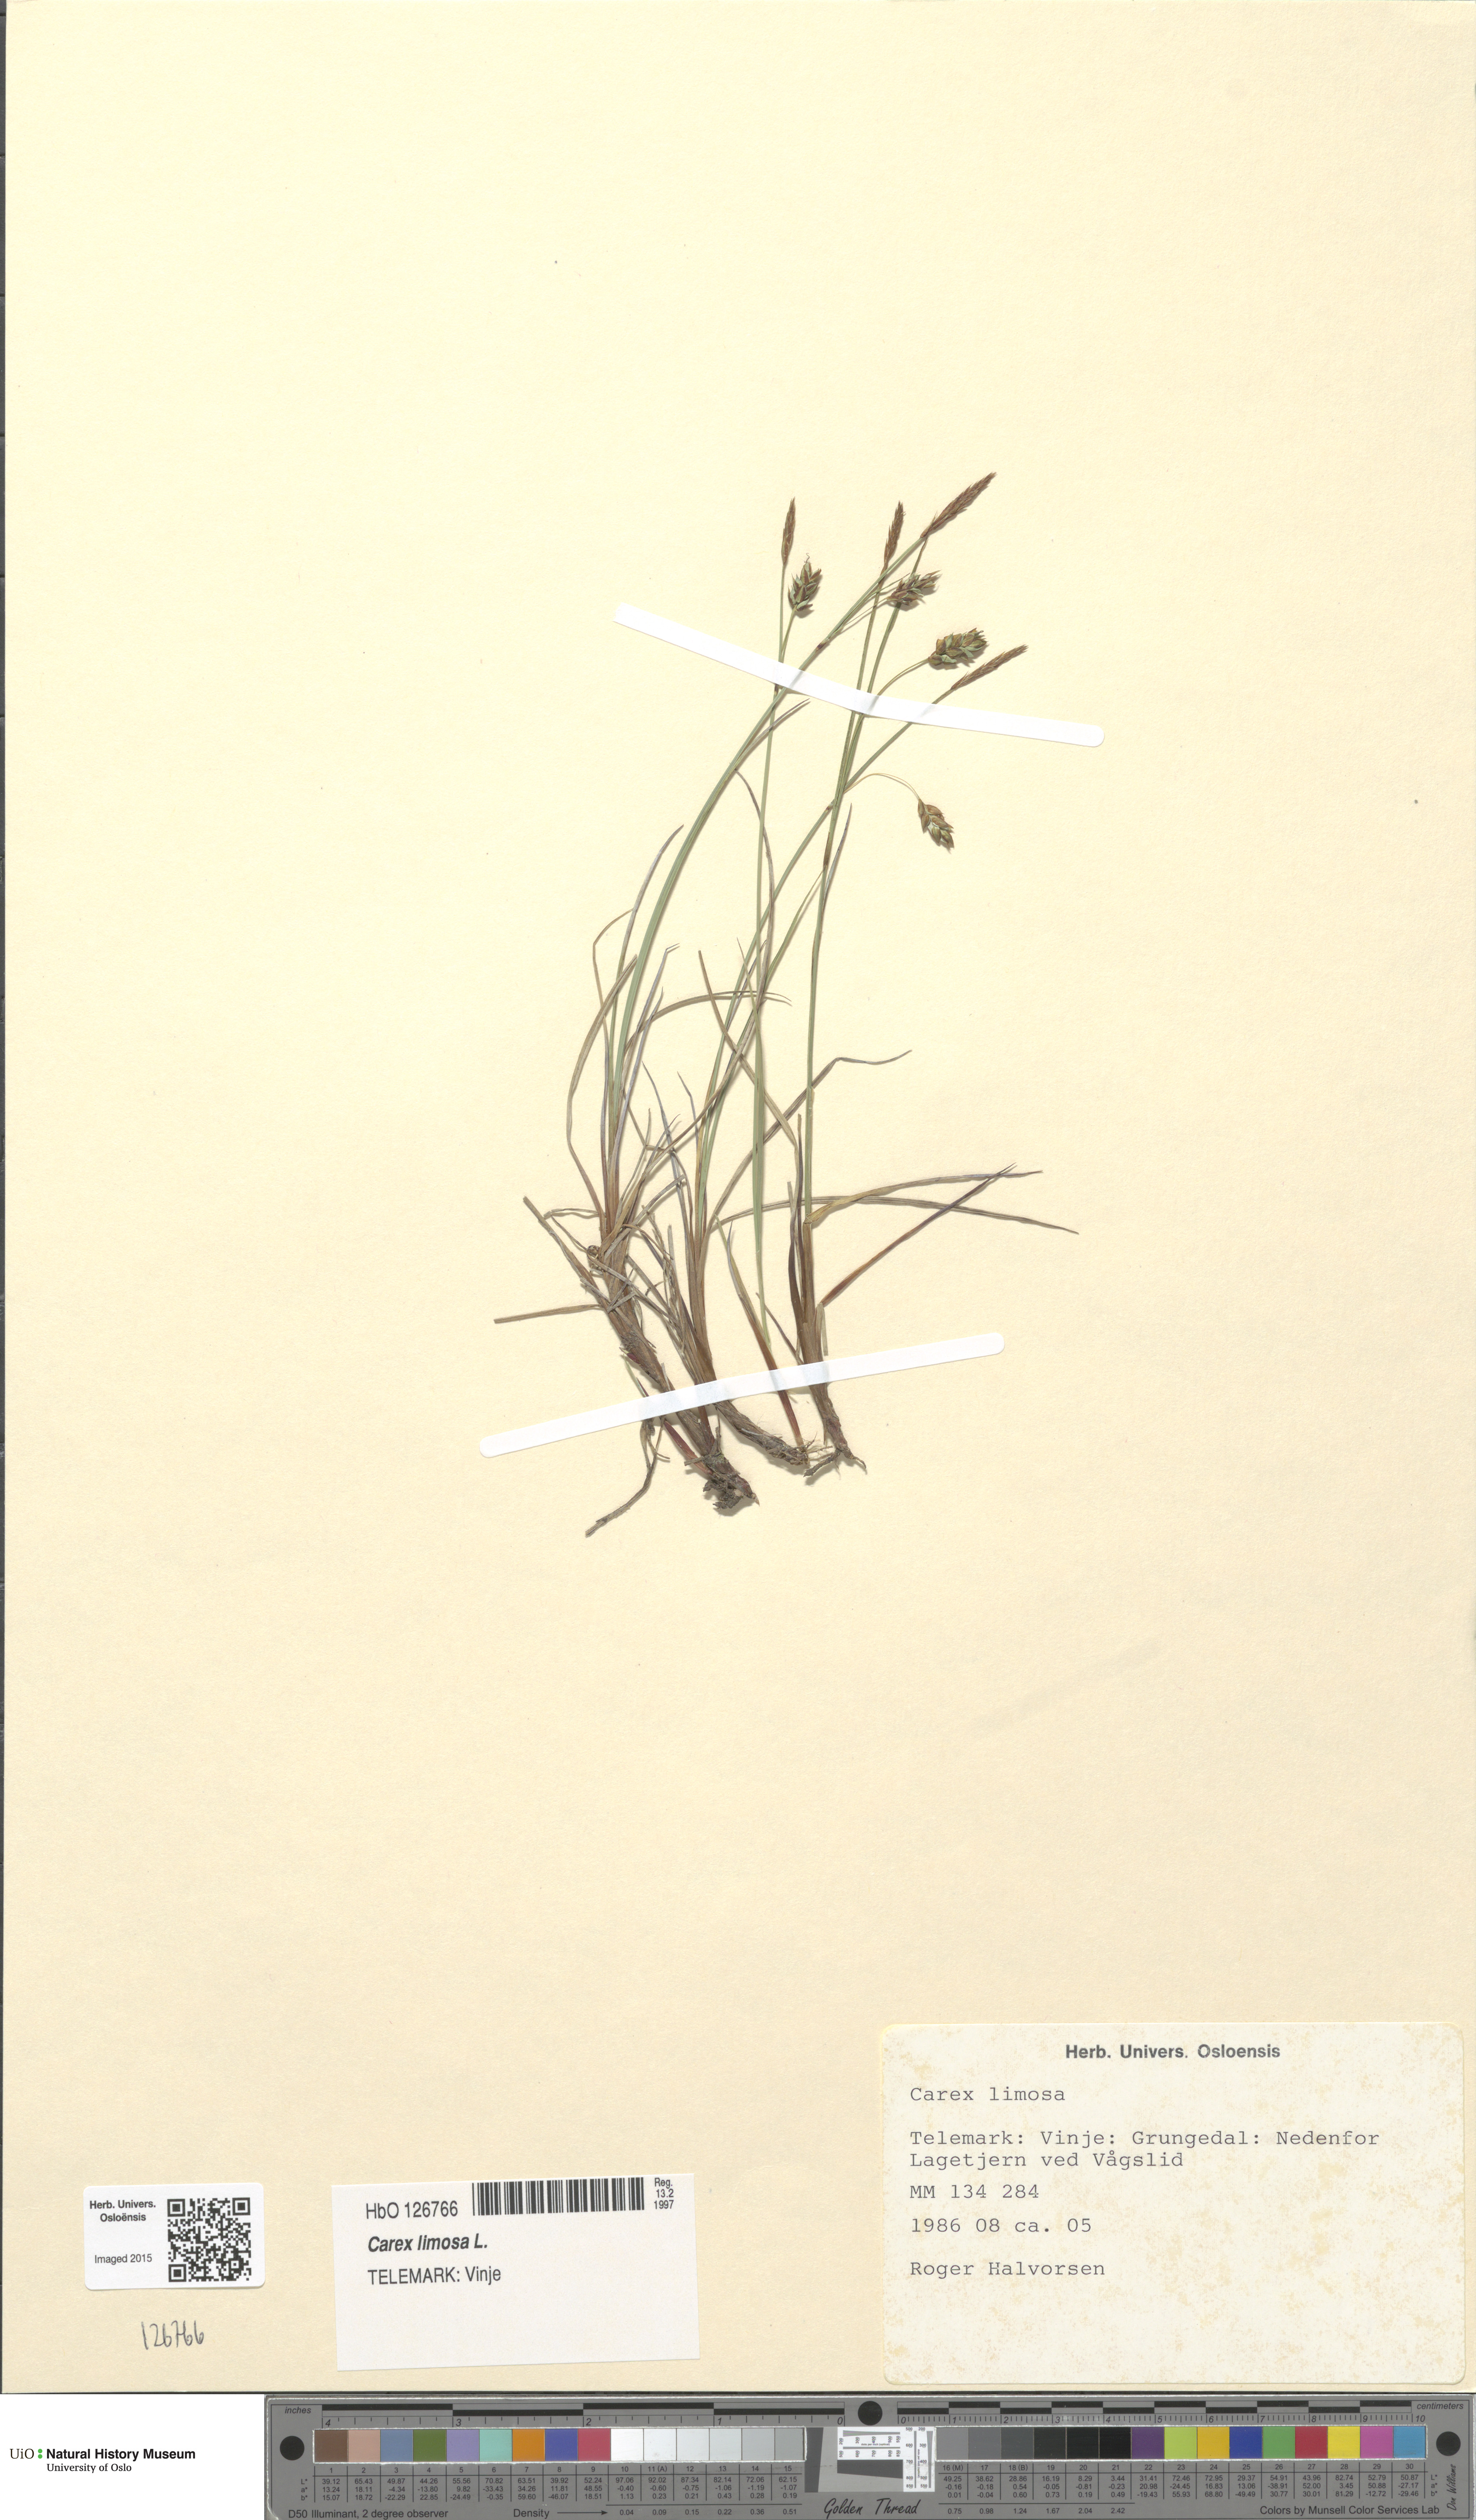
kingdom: Plantae
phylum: Tracheophyta
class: Liliopsida
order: Poales
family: Cyperaceae
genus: Carex
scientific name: Carex limosa
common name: Bog sedge
